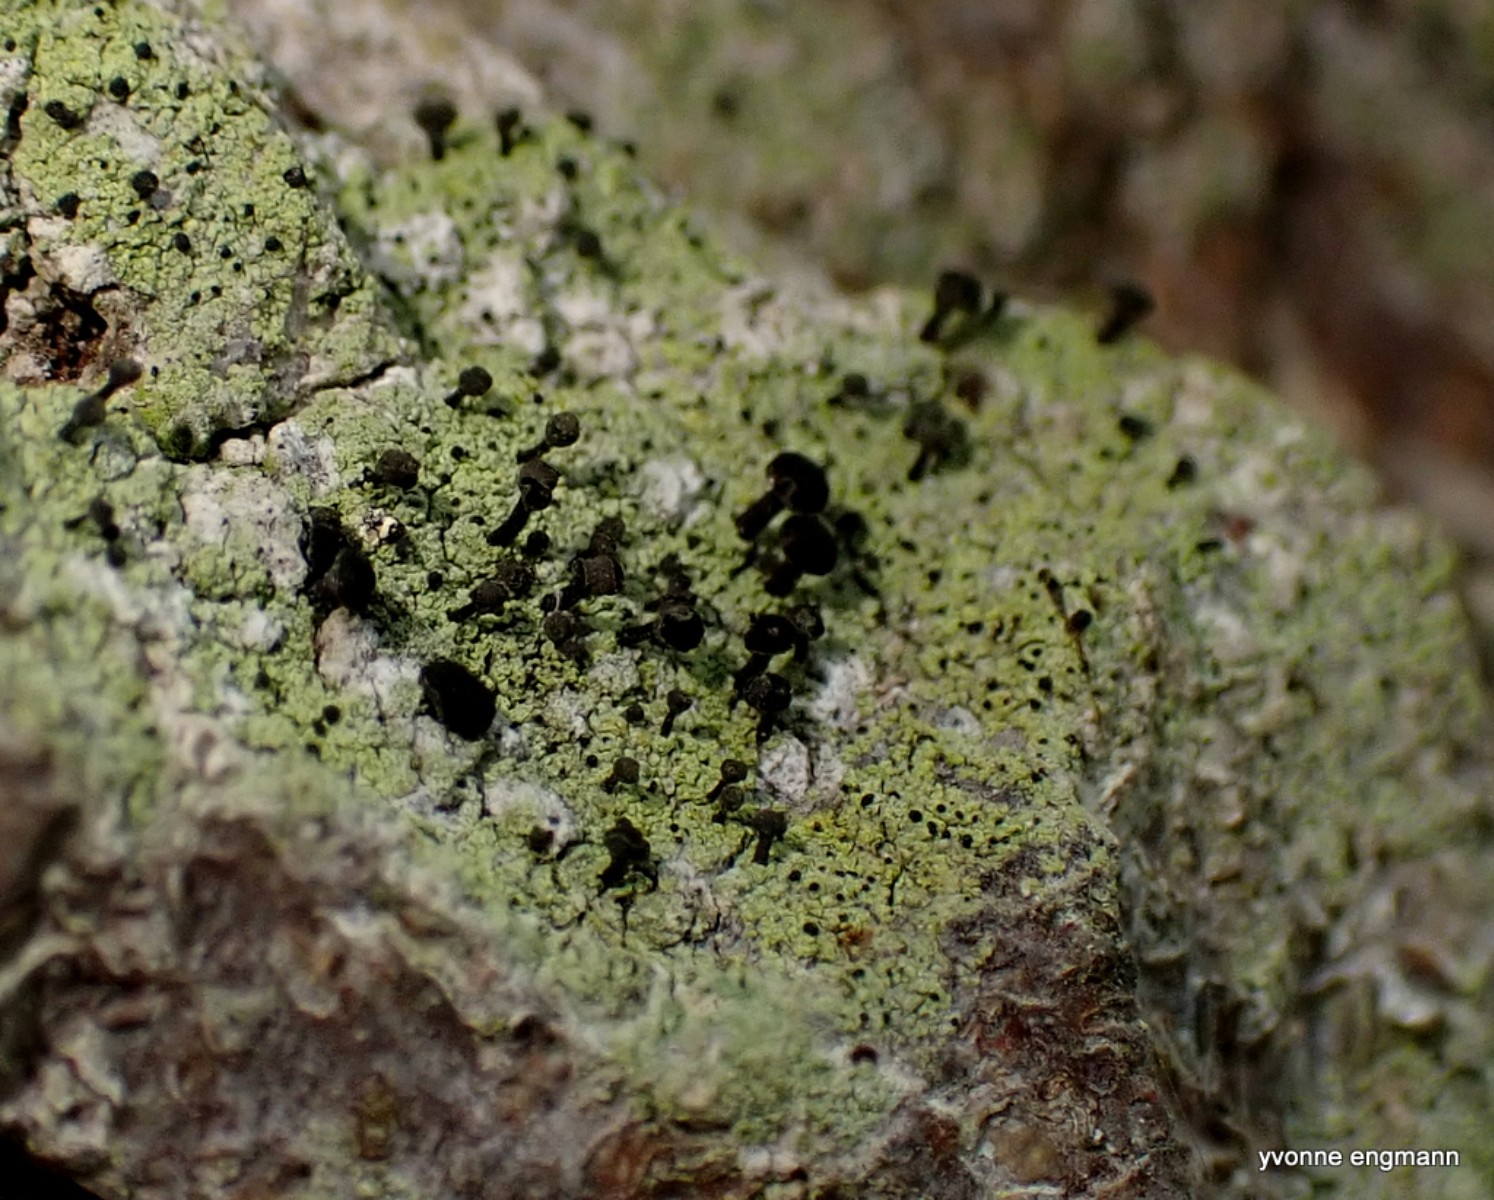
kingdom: Fungi
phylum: Ascomycota
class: Lecanoromycetes
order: Caliciales
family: Caliciaceae
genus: Calicium
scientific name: Calicium viride
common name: gulgrøn nålelav
